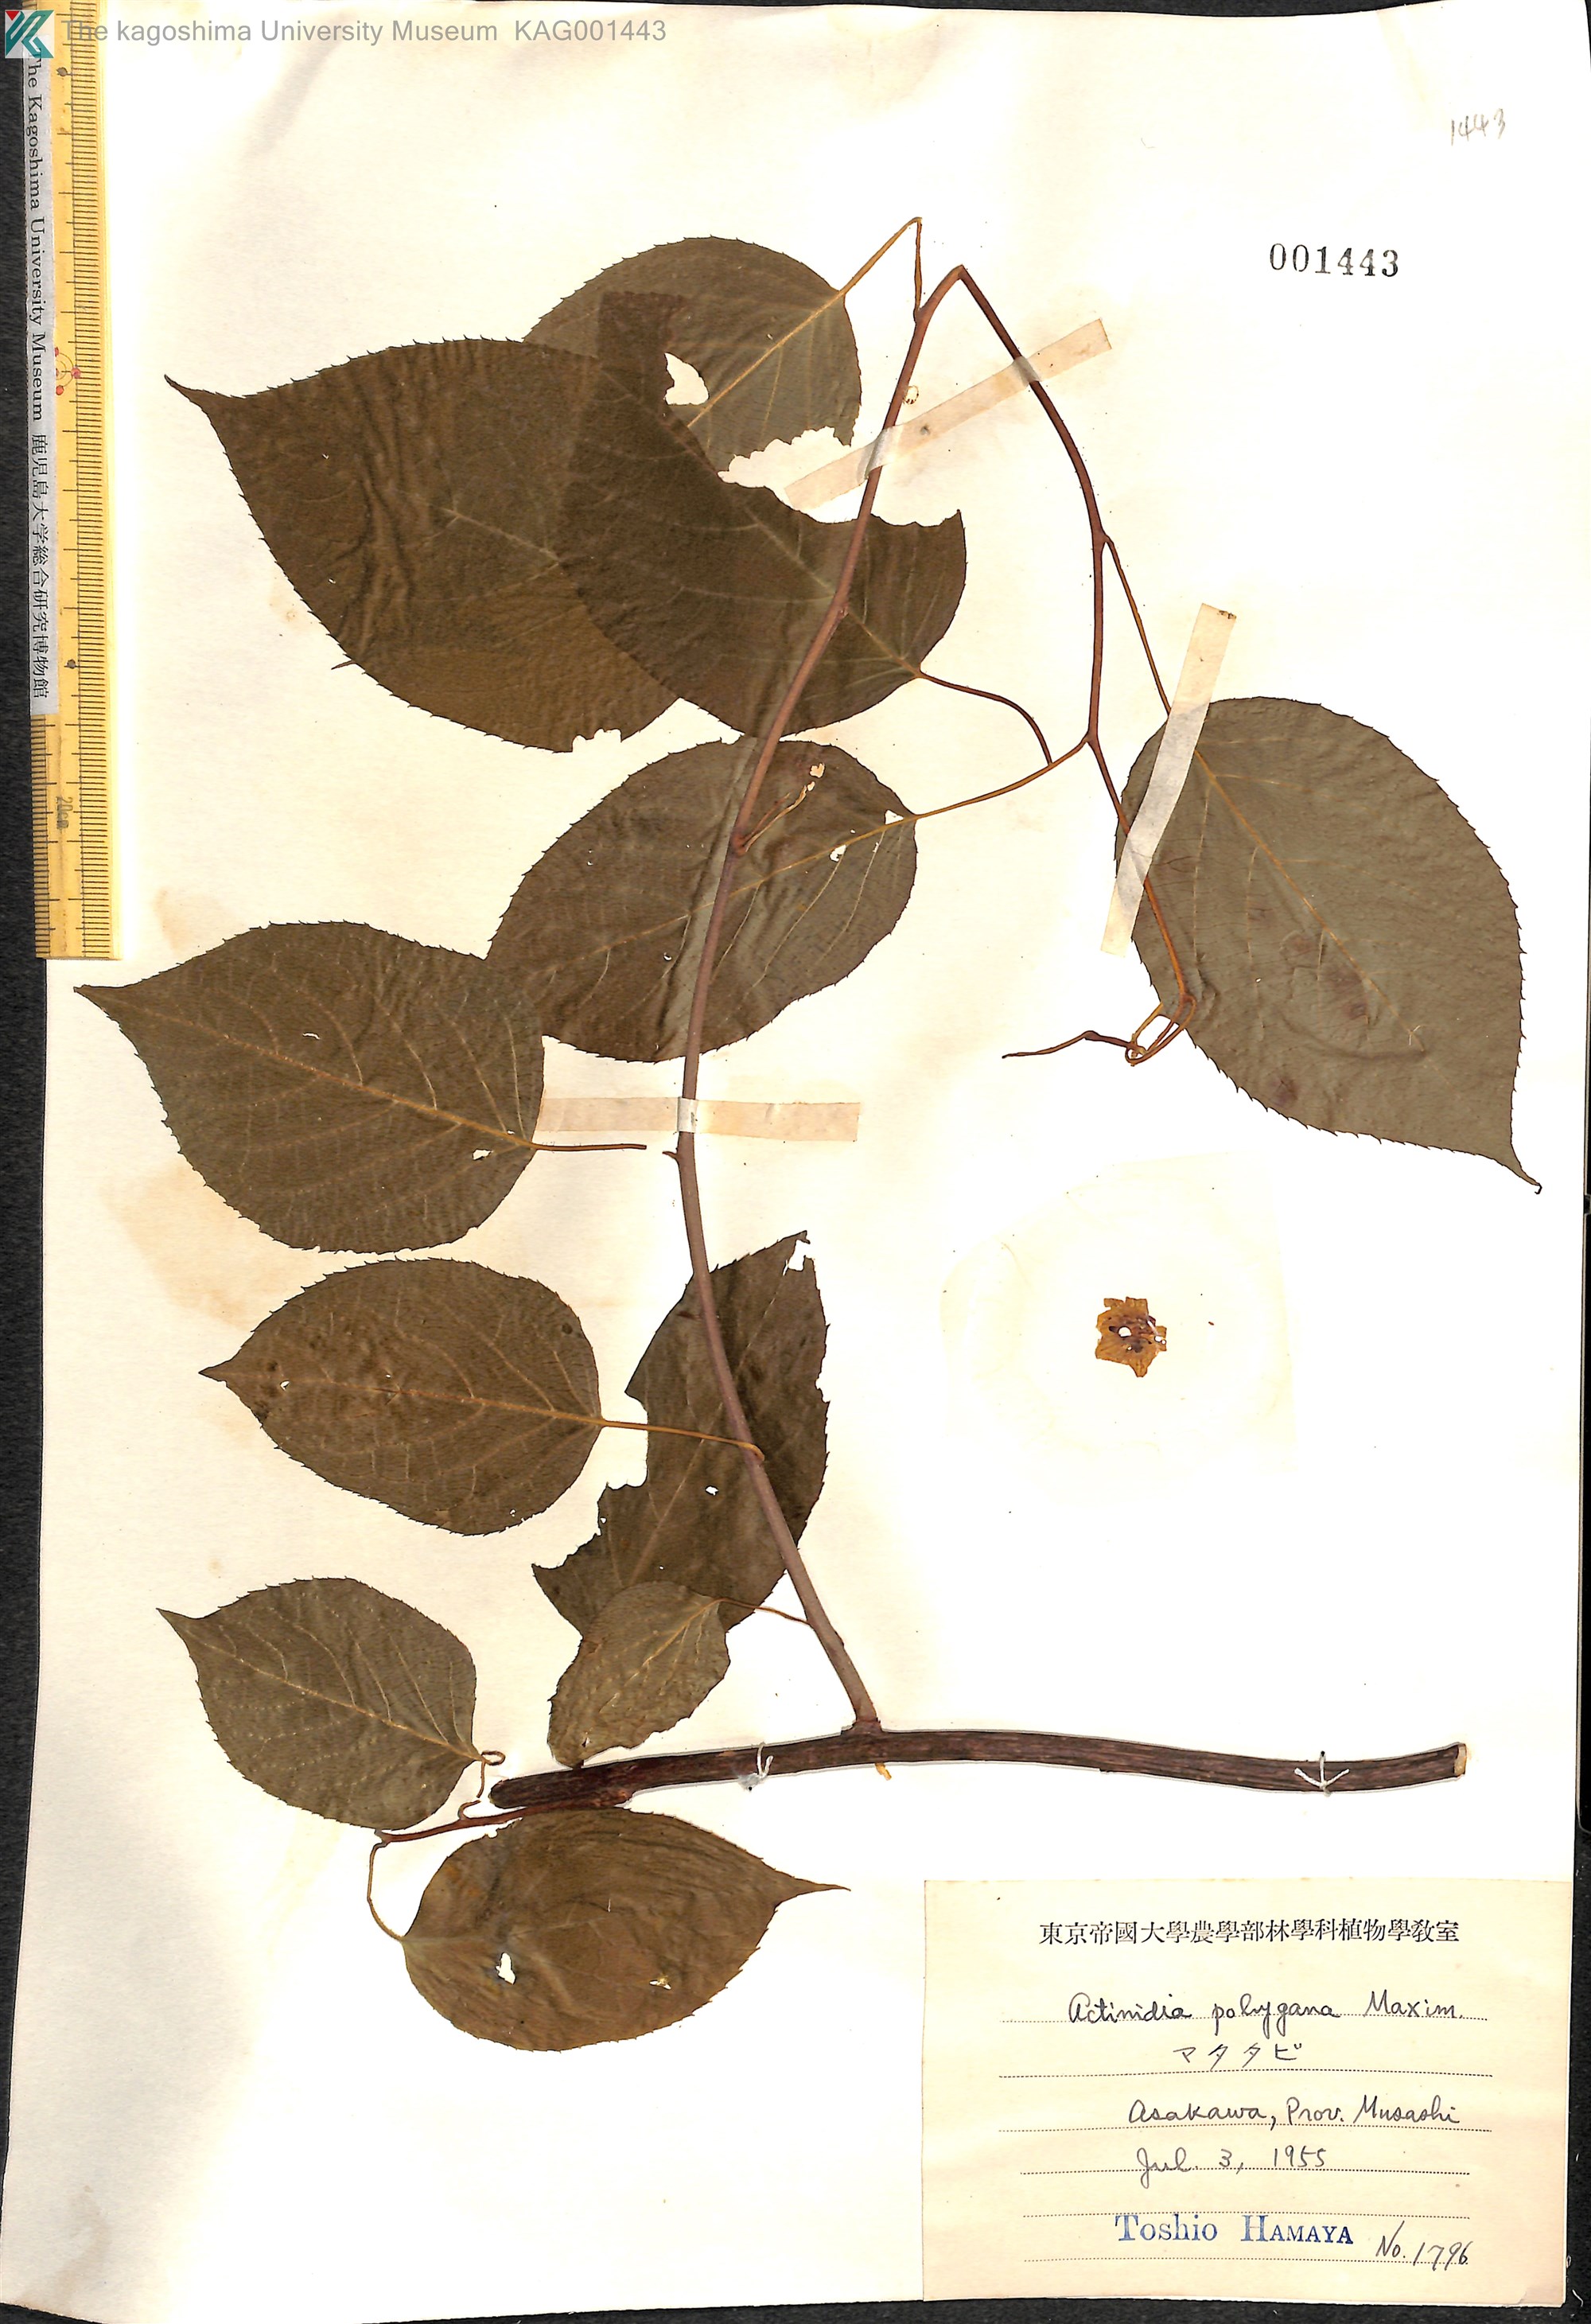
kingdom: Plantae
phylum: Tracheophyta
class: Magnoliopsida
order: Ericales
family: Actinidiaceae
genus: Actinidia
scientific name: Actinidia polygama
